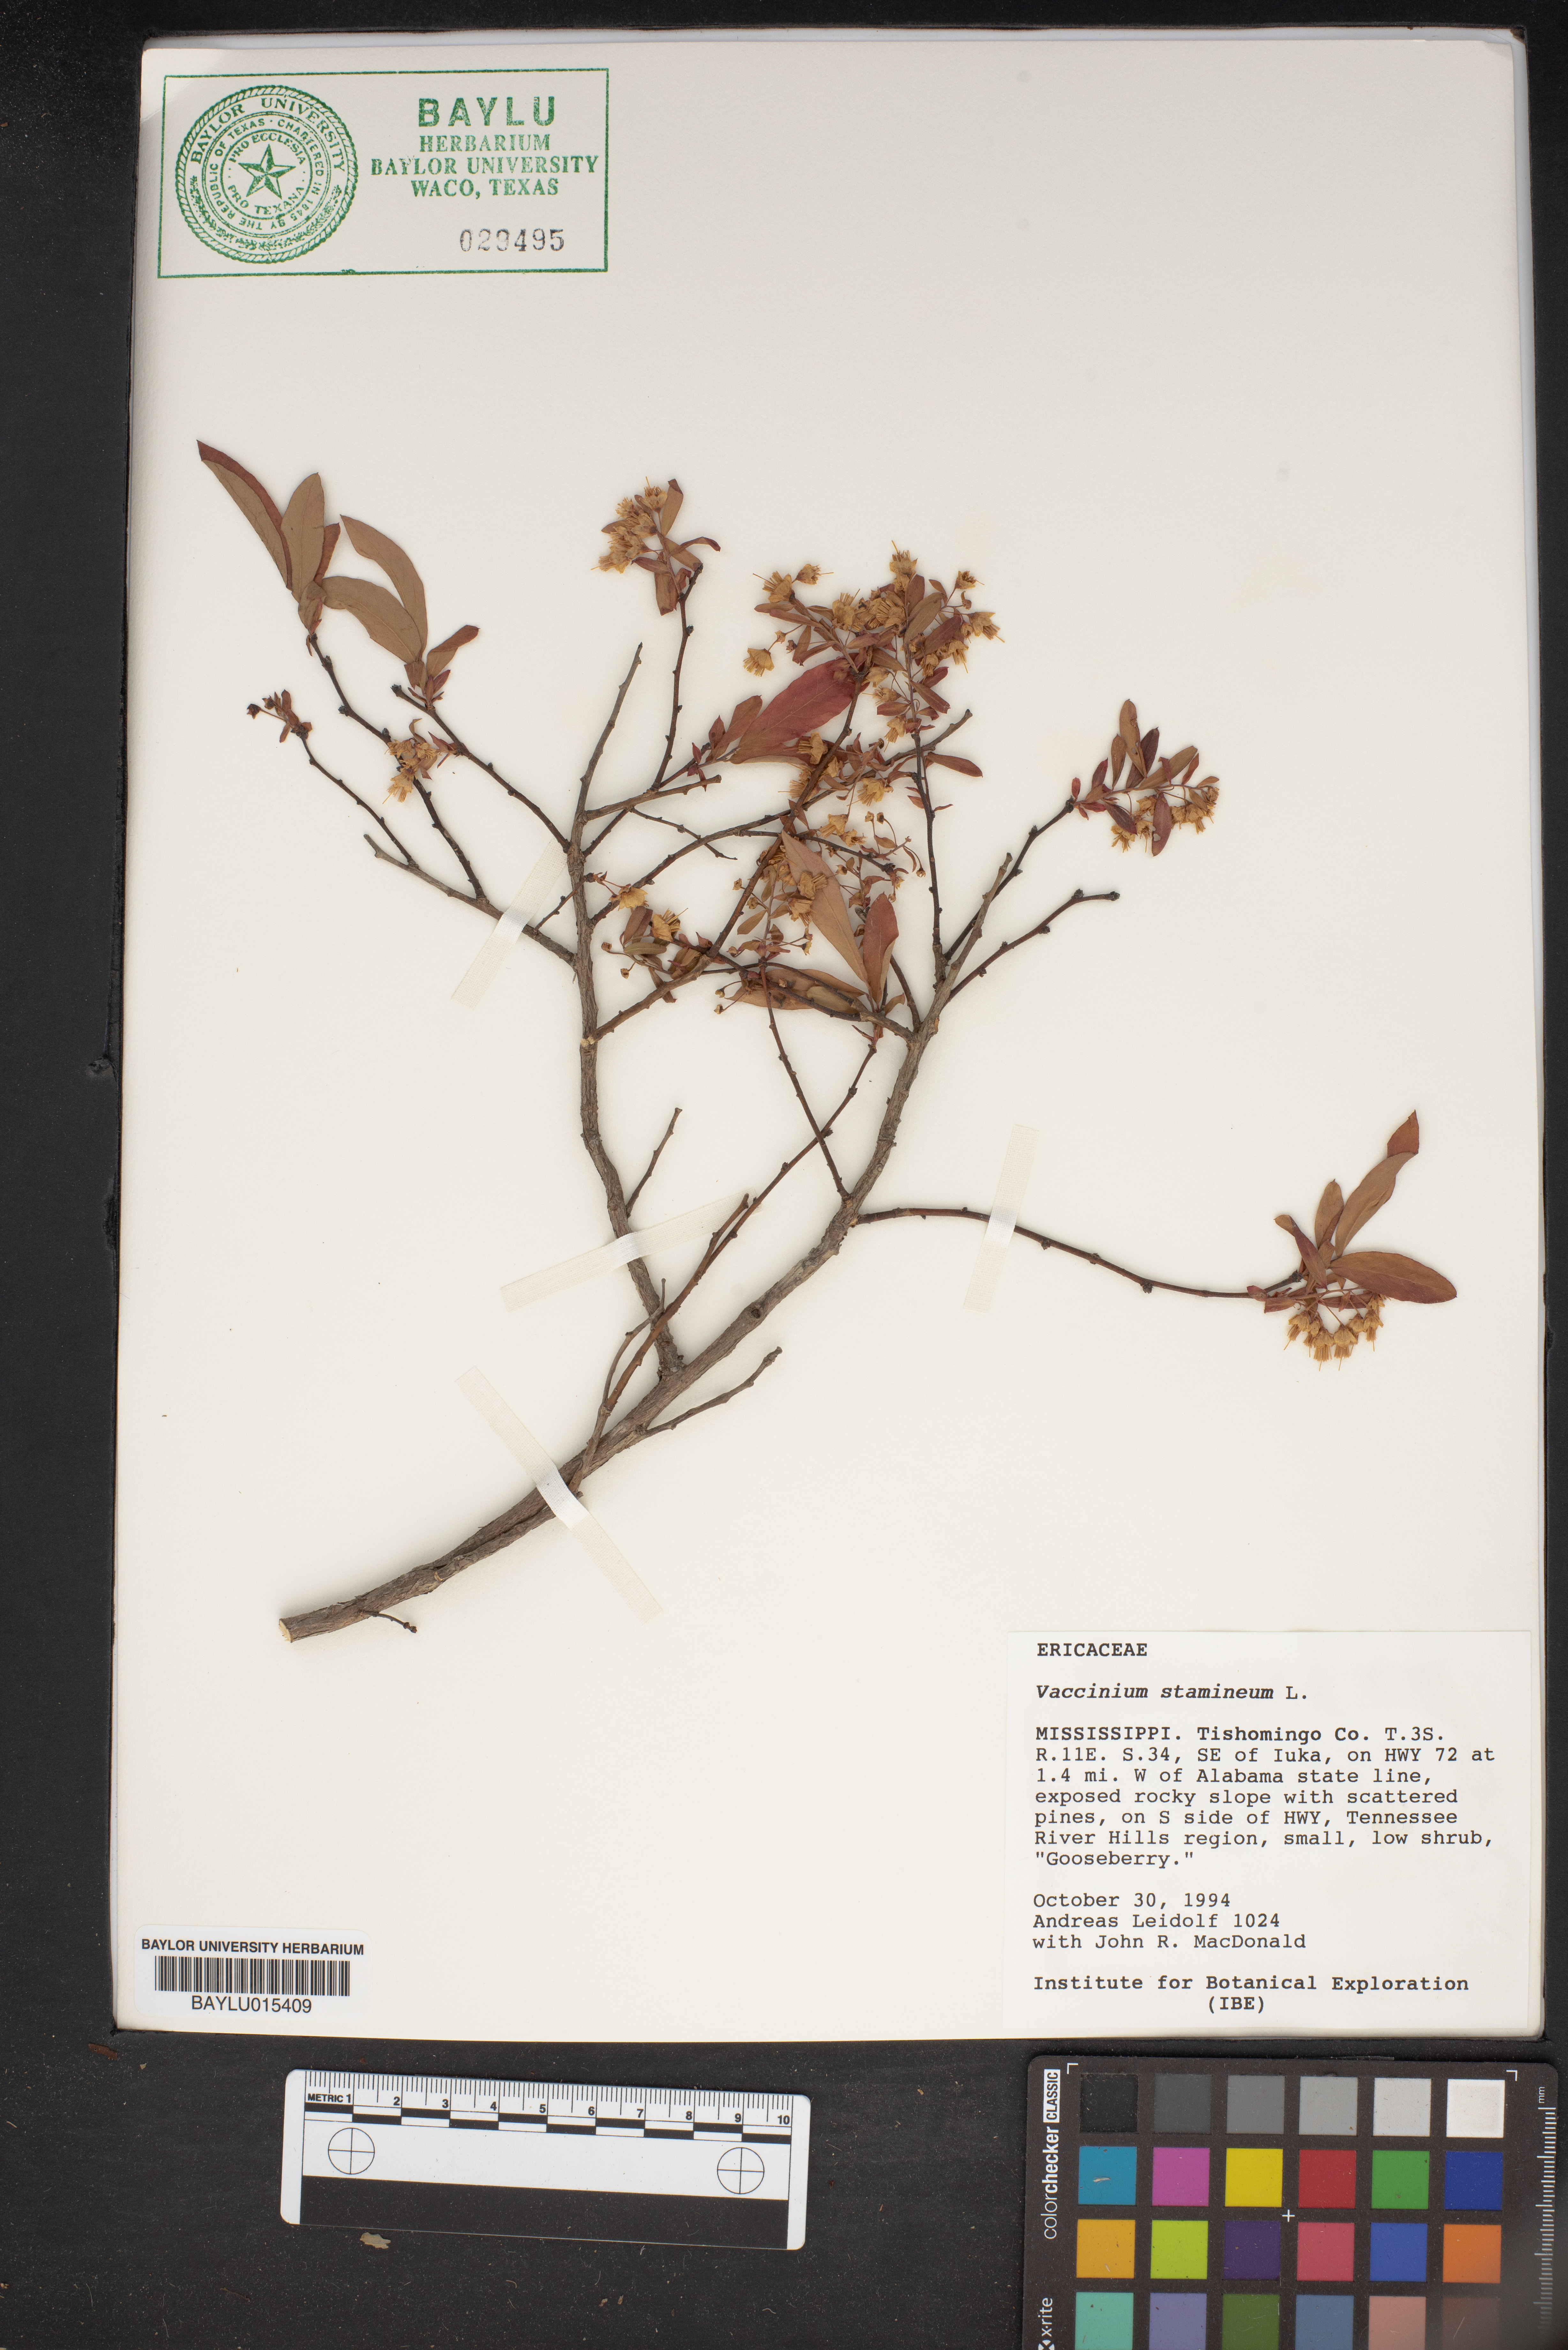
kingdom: Plantae
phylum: Tracheophyta
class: Magnoliopsida
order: Ericales
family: Ericaceae
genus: Vaccinium
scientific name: Vaccinium stamineum
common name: Deerberry
